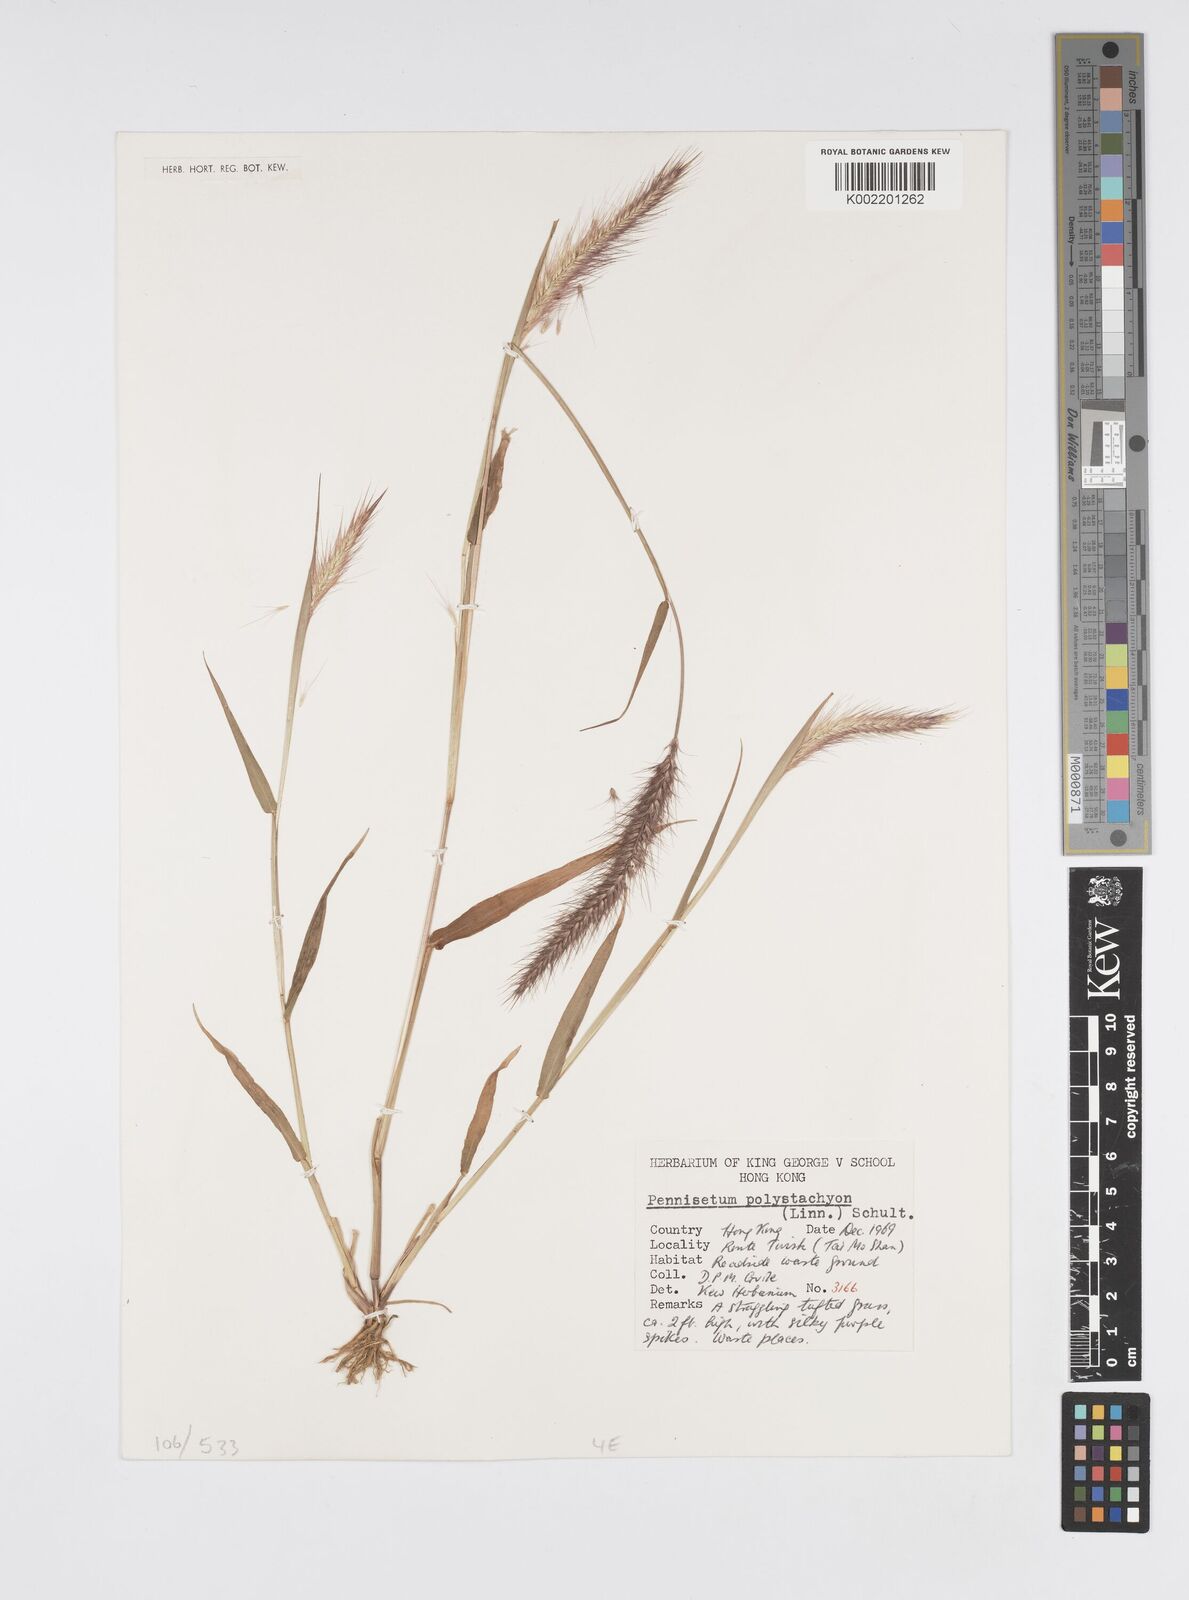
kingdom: Plantae
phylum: Tracheophyta
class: Liliopsida
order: Poales
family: Poaceae
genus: Setaria
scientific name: Setaria parviflora
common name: Knotroot bristle-grass
